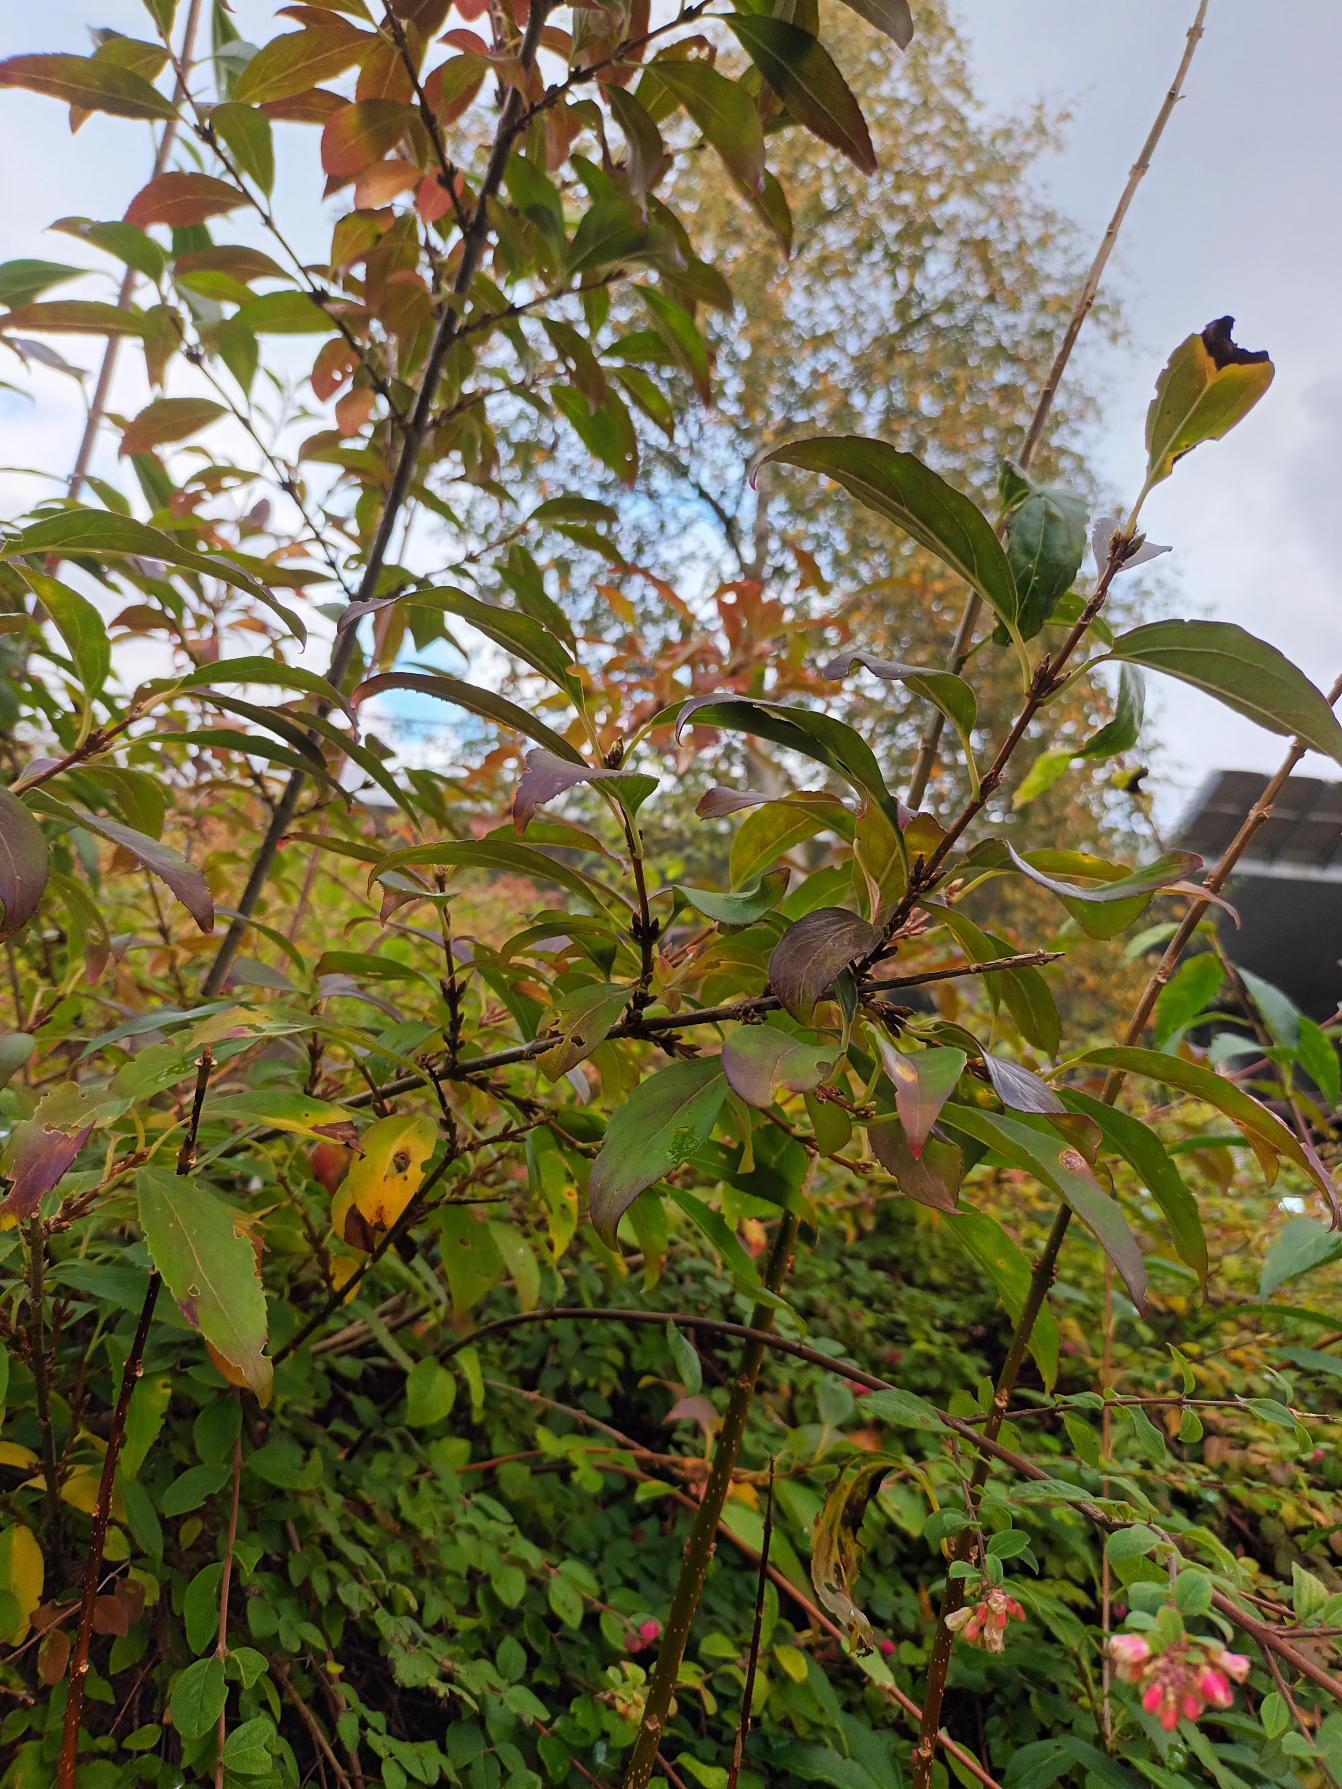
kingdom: Plantae
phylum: Tracheophyta
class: Magnoliopsida
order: Lamiales
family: Oleaceae
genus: Forsythia
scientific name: Forsythia intermedia
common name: Have-forsythia
